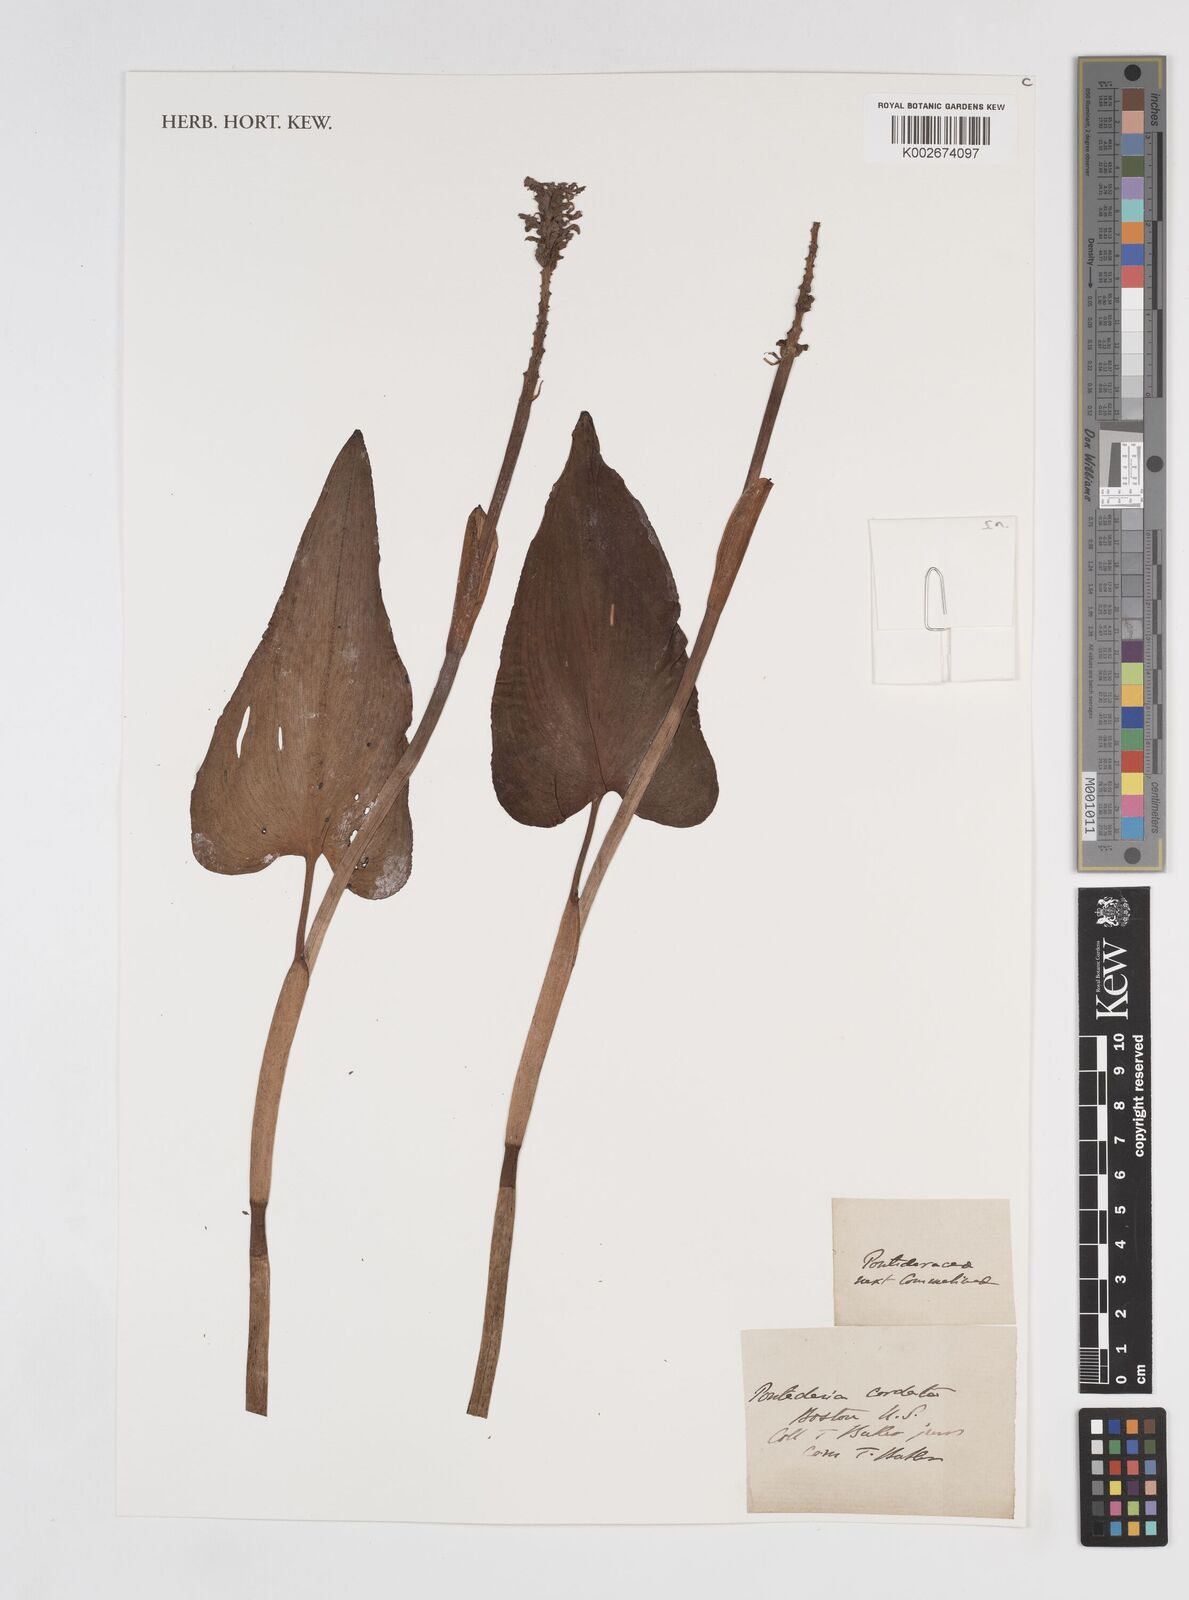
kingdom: Plantae
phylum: Tracheophyta
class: Liliopsida
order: Commelinales
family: Pontederiaceae
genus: Pontederia
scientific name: Pontederia cordata
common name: Pickerelweed
